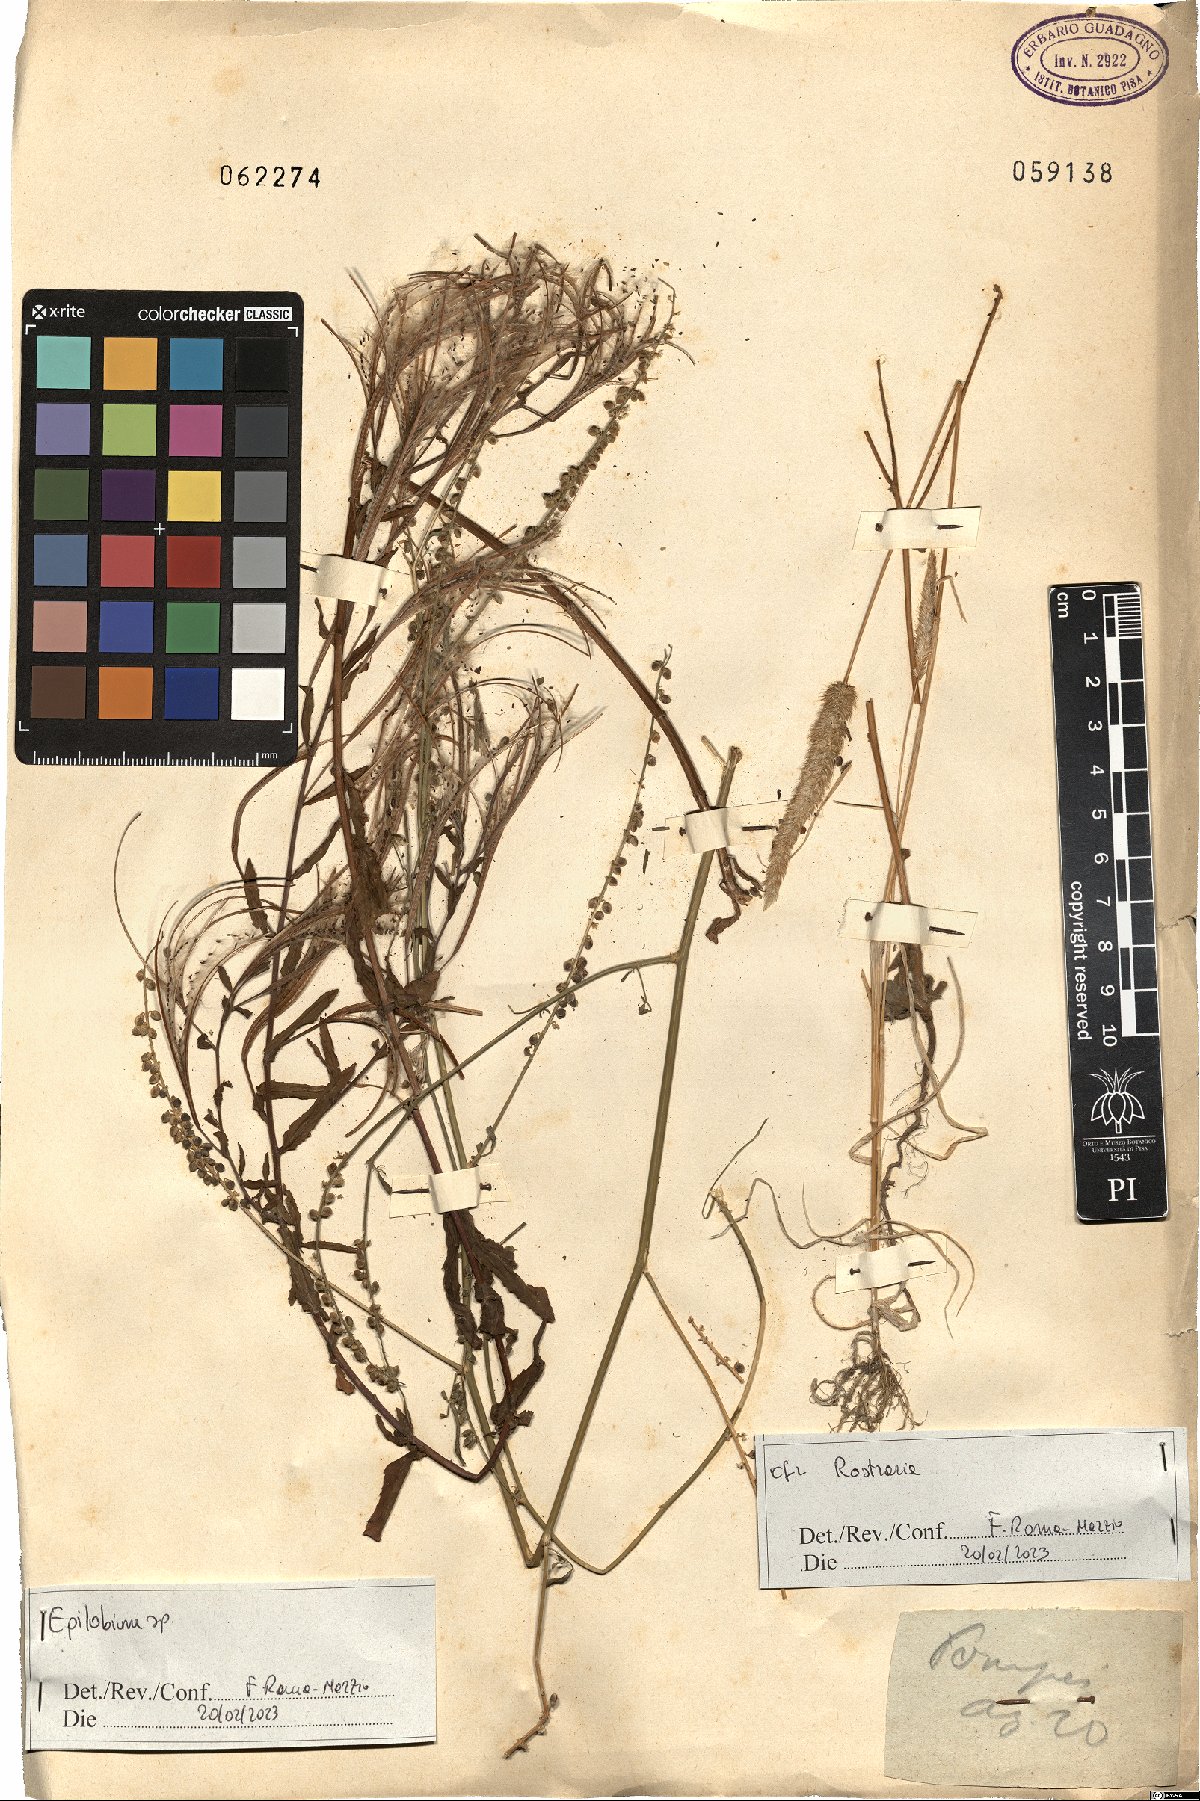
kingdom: Plantae
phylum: Tracheophyta
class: Magnoliopsida
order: Myrtales
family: Onagraceae
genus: Epilobium
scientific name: Epilobium
